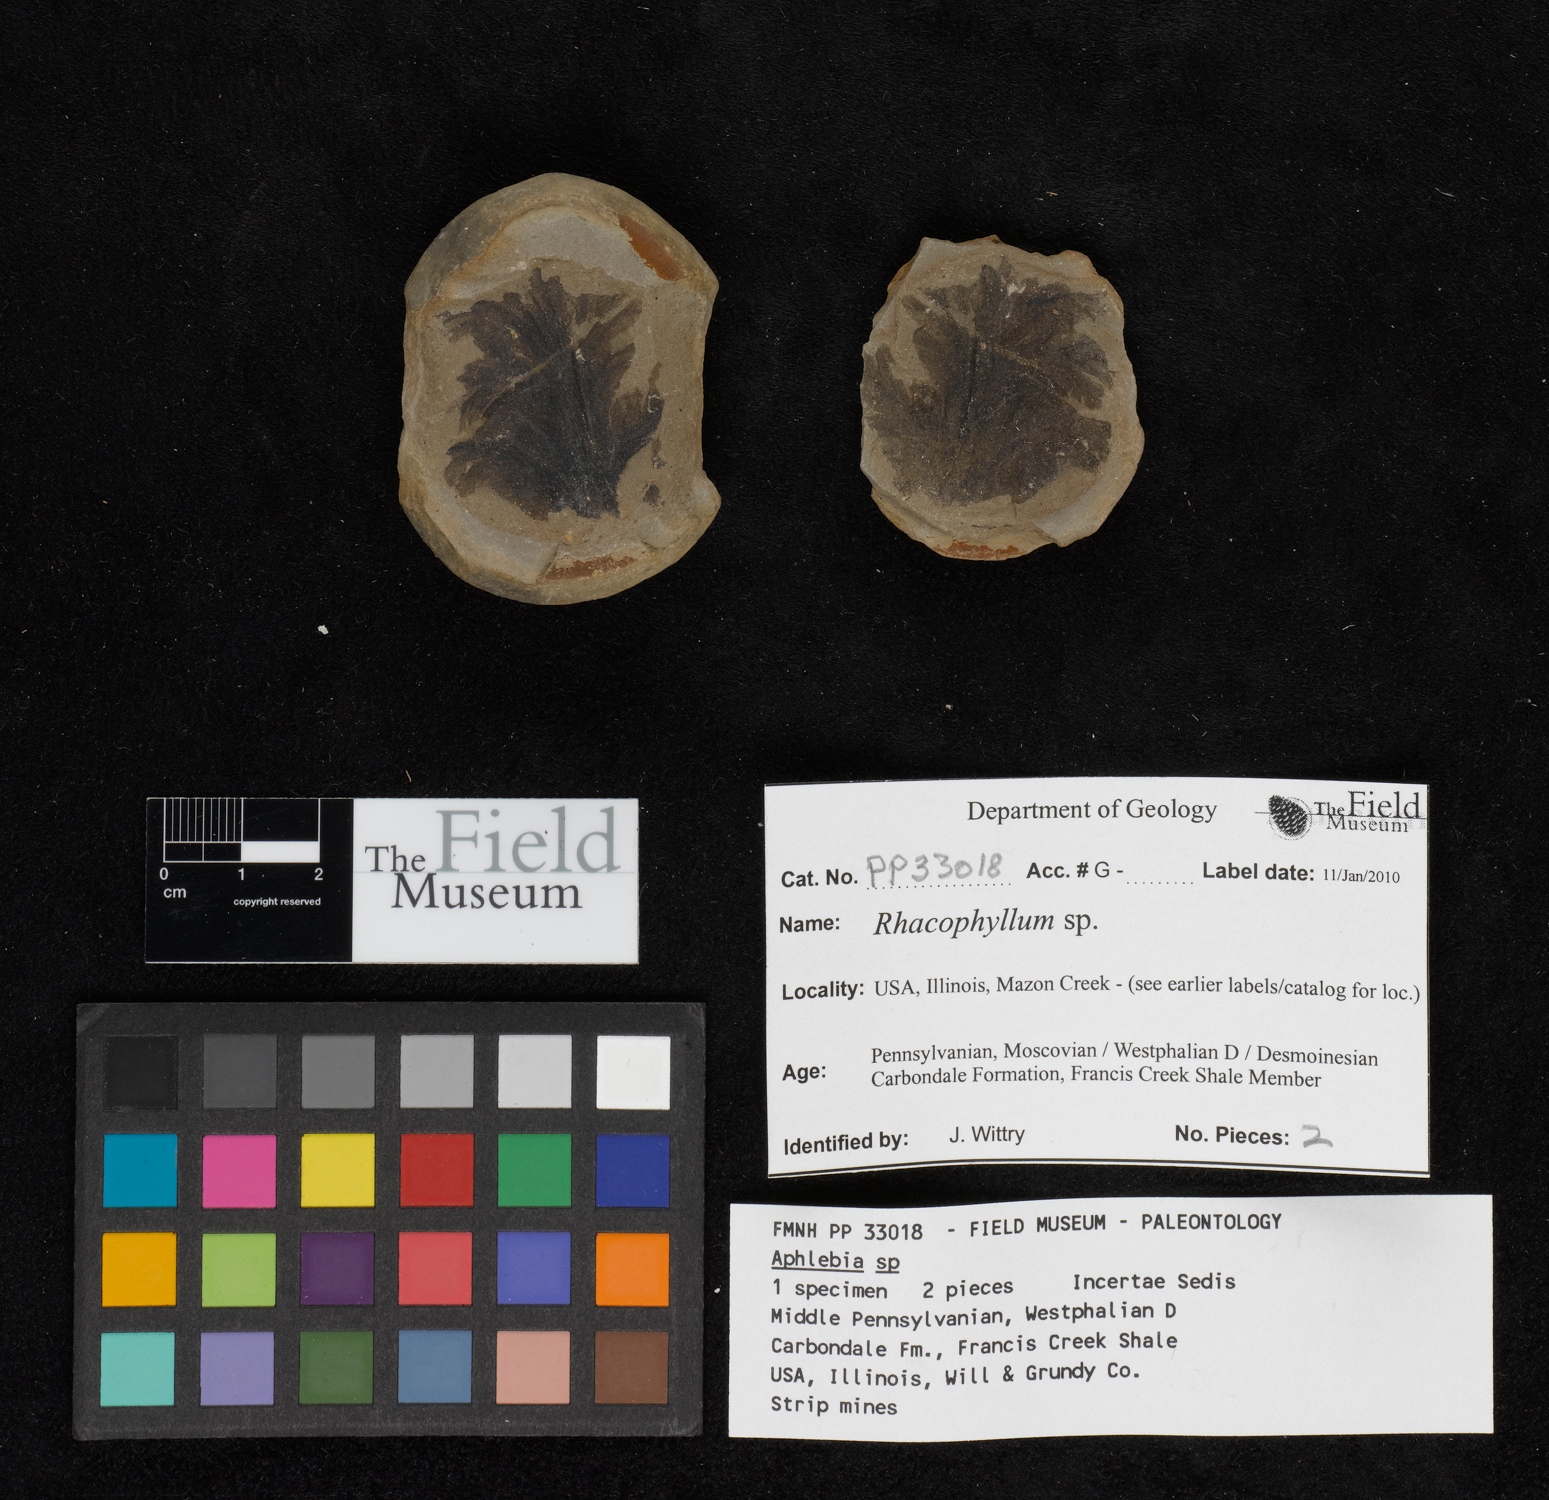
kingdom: Plantae
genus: Rhacophyllum
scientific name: Rhacophyllum
